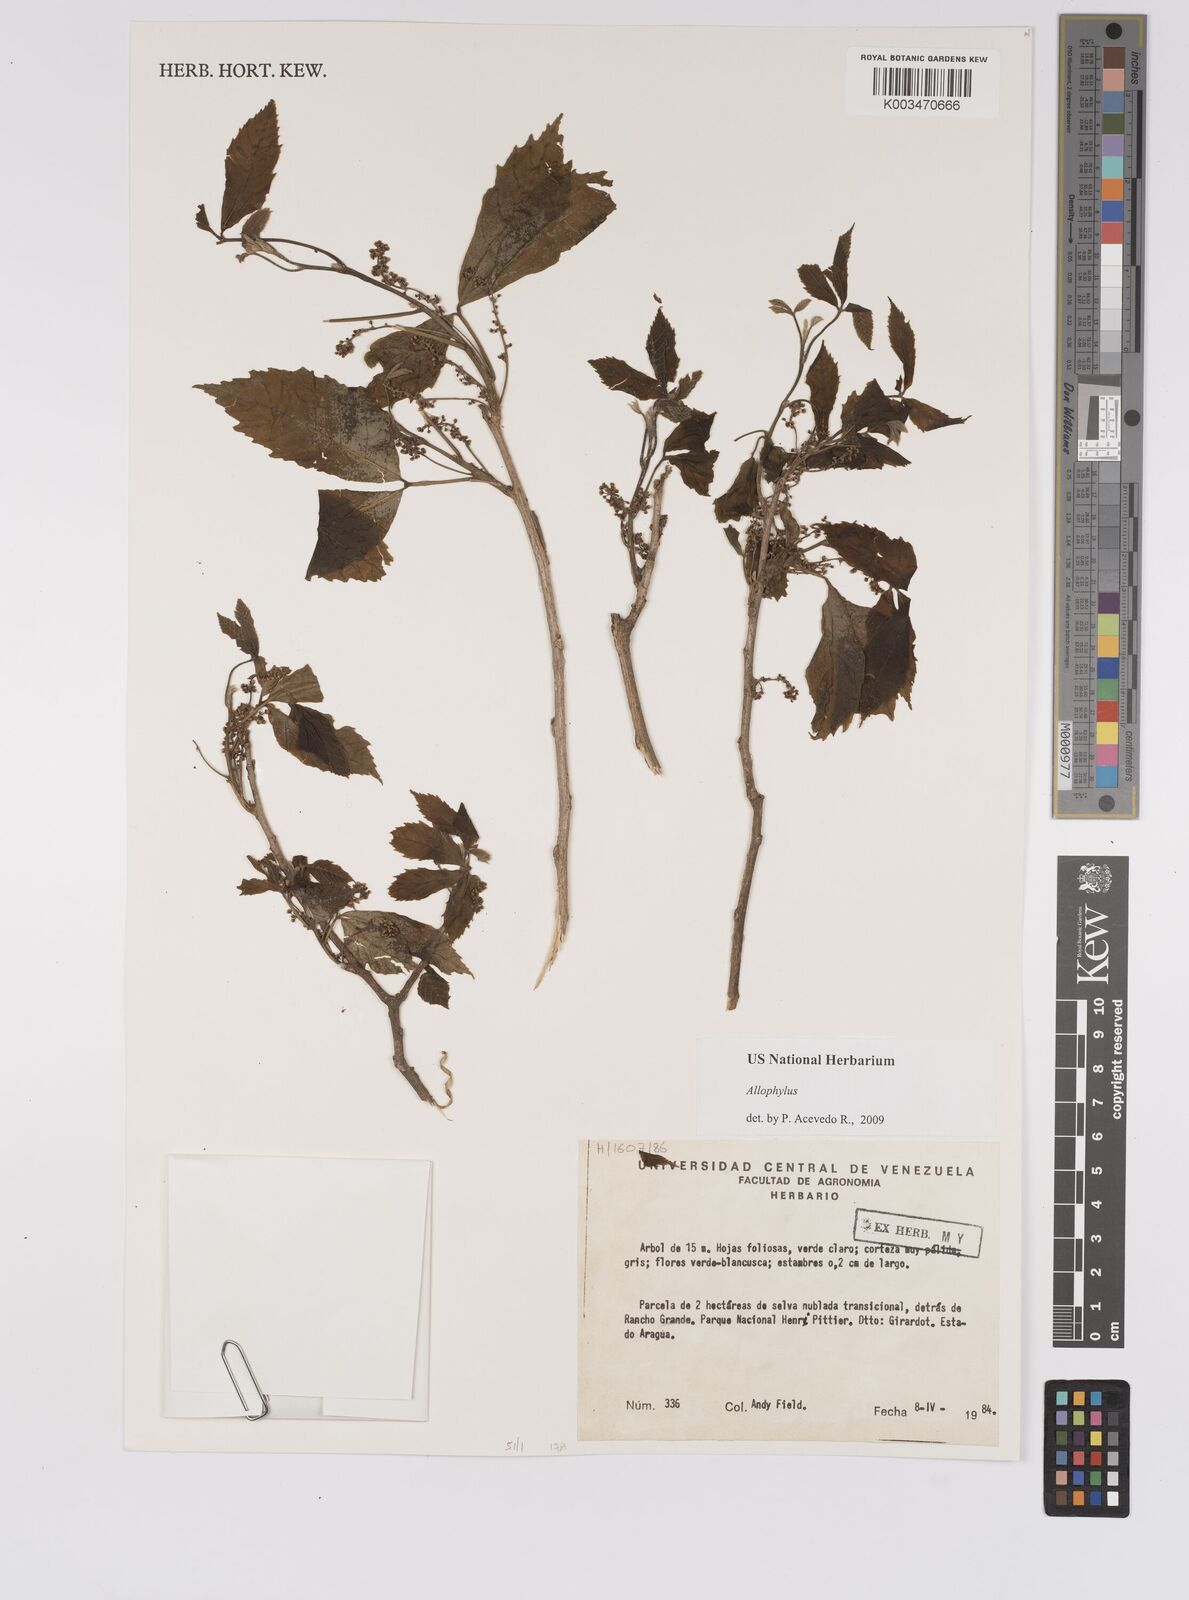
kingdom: Plantae
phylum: Tracheophyta
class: Magnoliopsida
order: Sapindales
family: Sapindaceae
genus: Allophylus
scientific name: Allophylus
